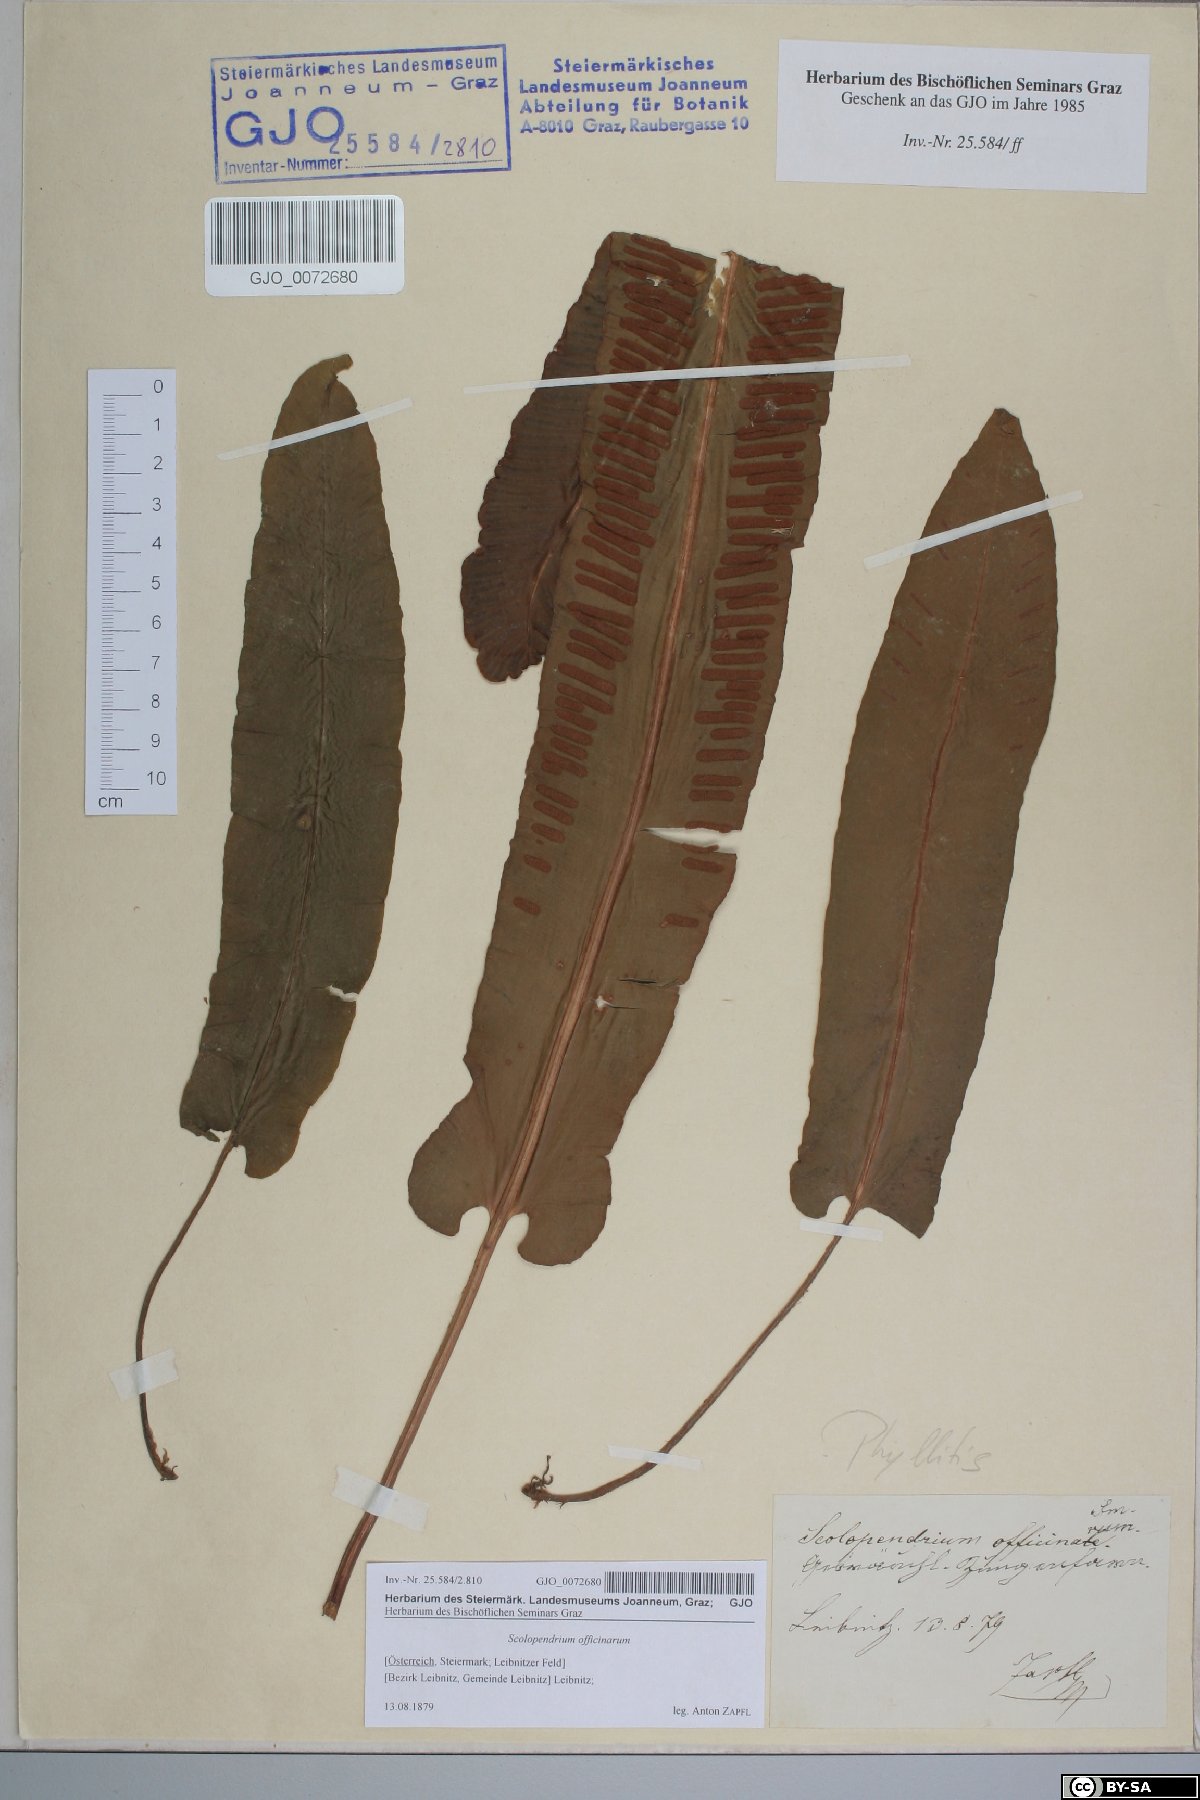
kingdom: Plantae
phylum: Tracheophyta
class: Polypodiopsida
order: Polypodiales
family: Aspleniaceae
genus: Asplenium
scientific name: Asplenium scolopendrium
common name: Hart's-tongue fern
